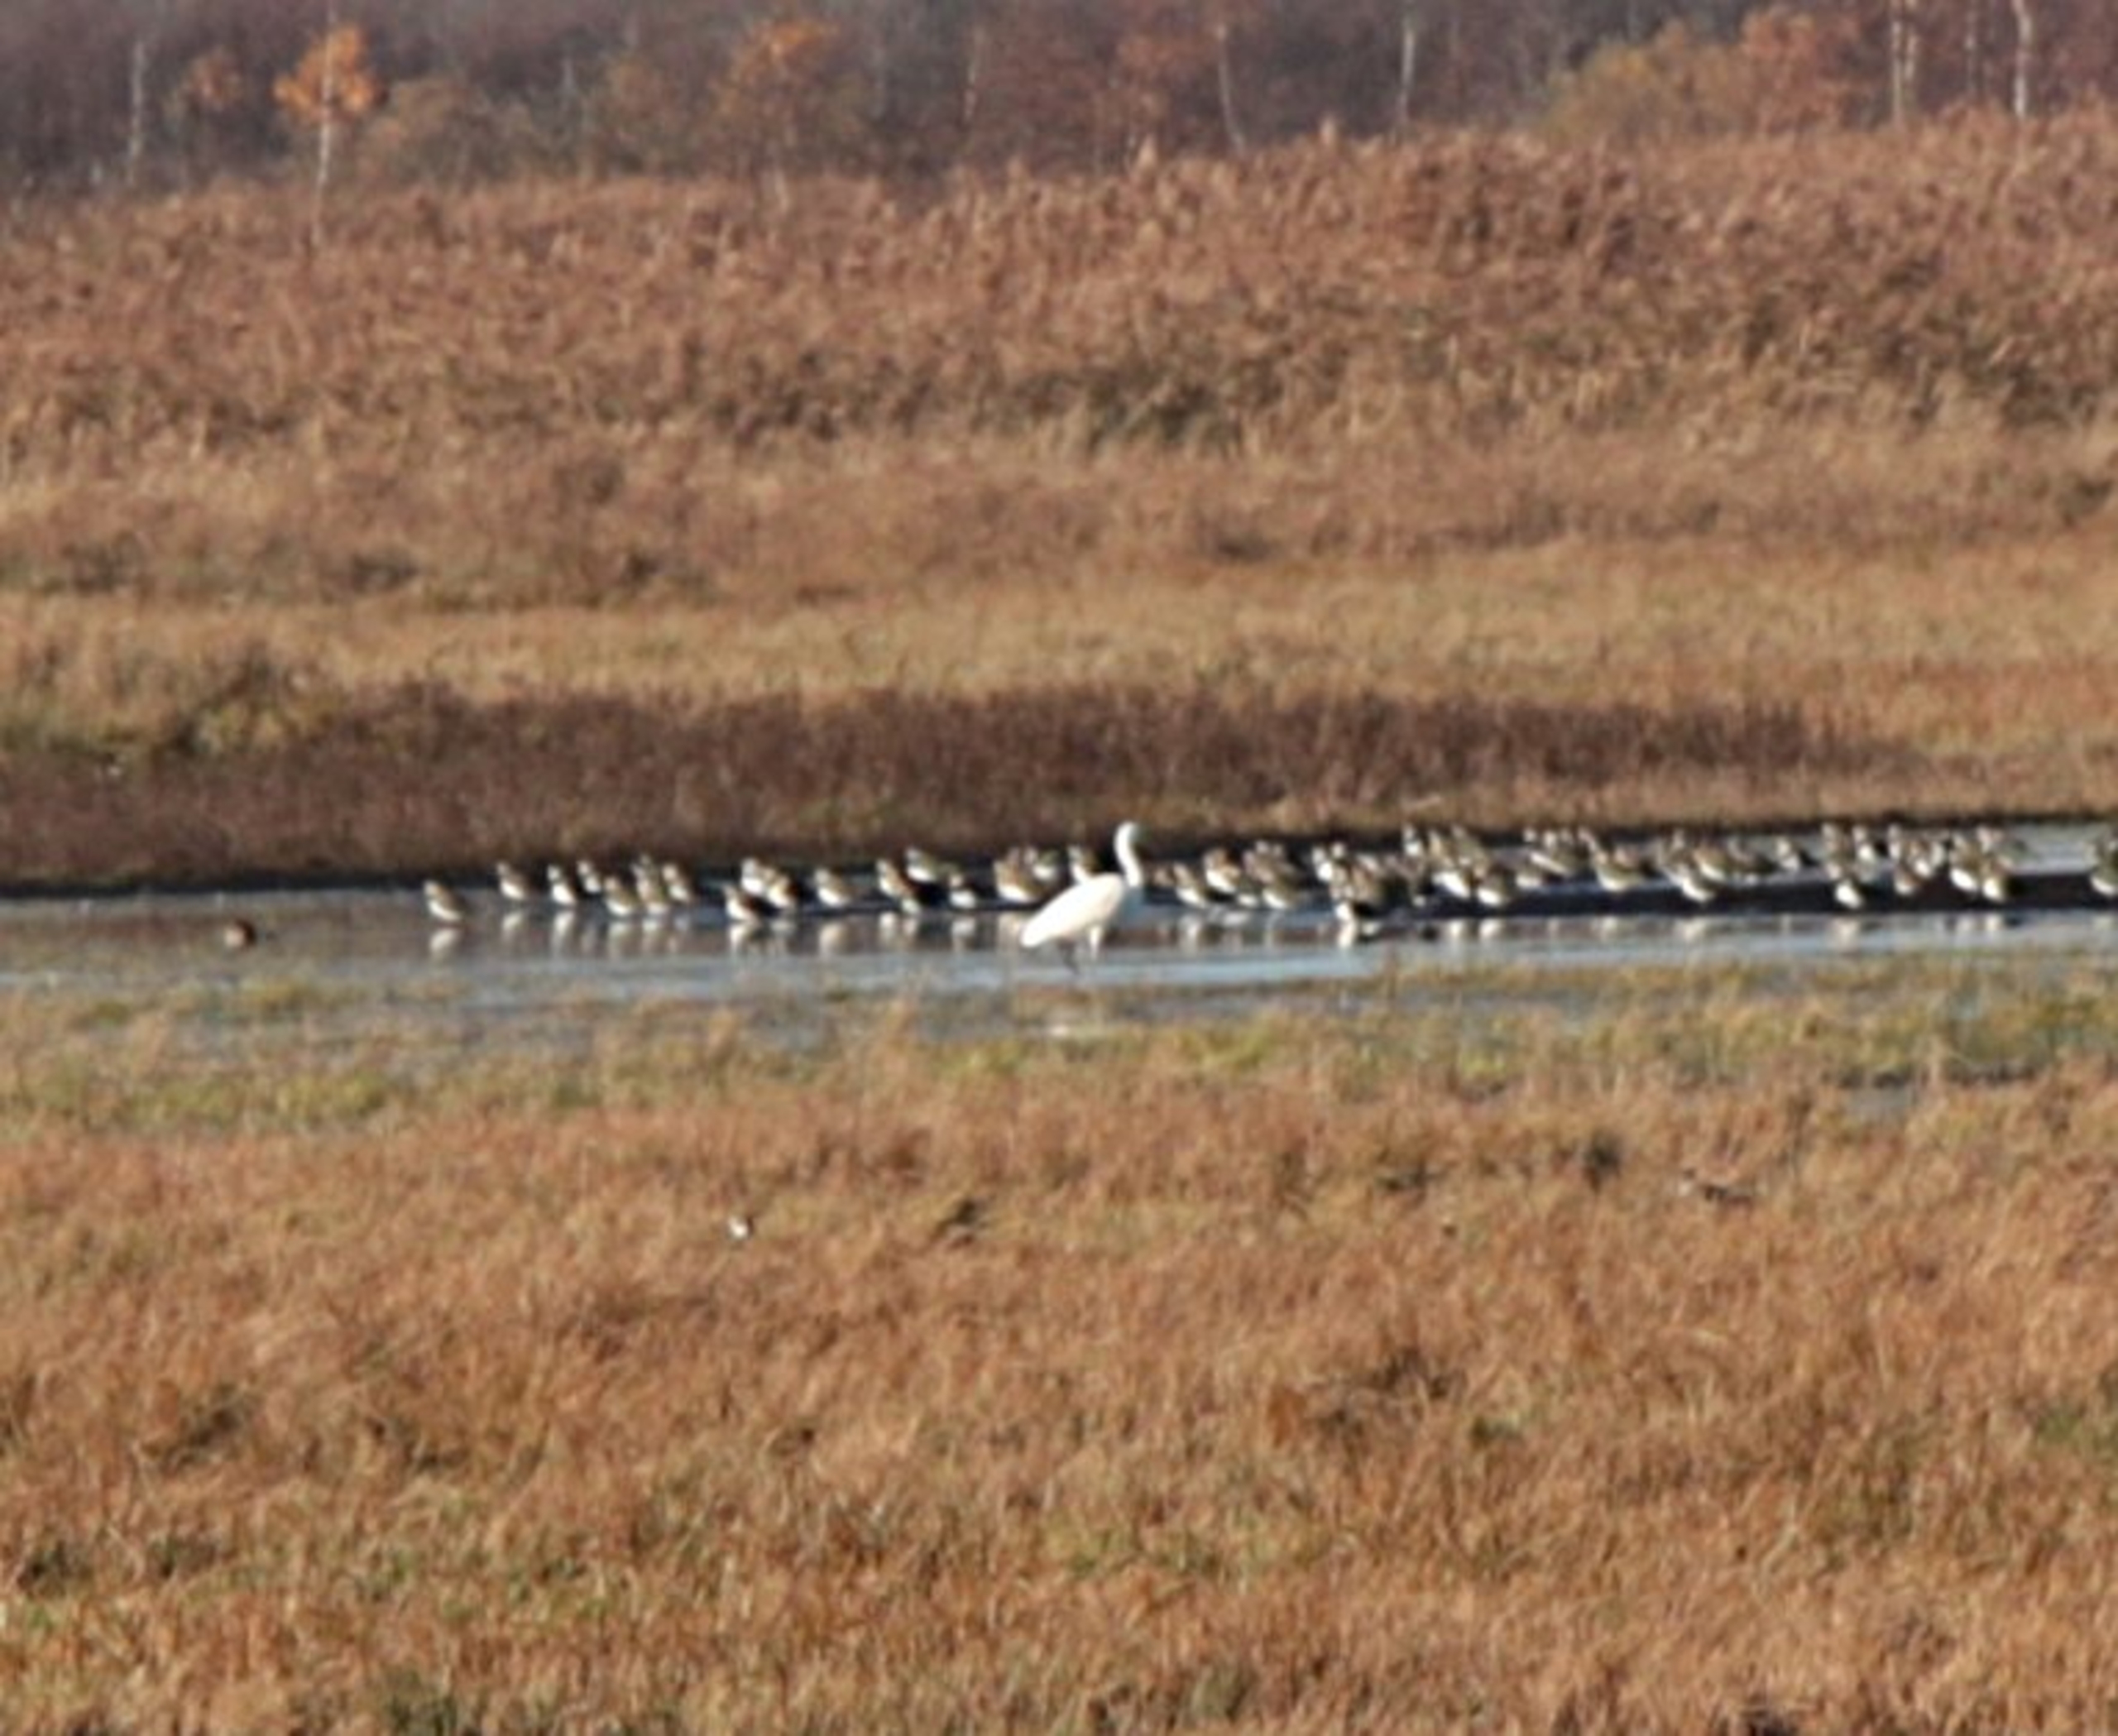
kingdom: Animalia
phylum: Chordata
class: Aves
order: Pelecaniformes
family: Ardeidae
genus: Ardea
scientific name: Ardea alba
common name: Sølvhejre
